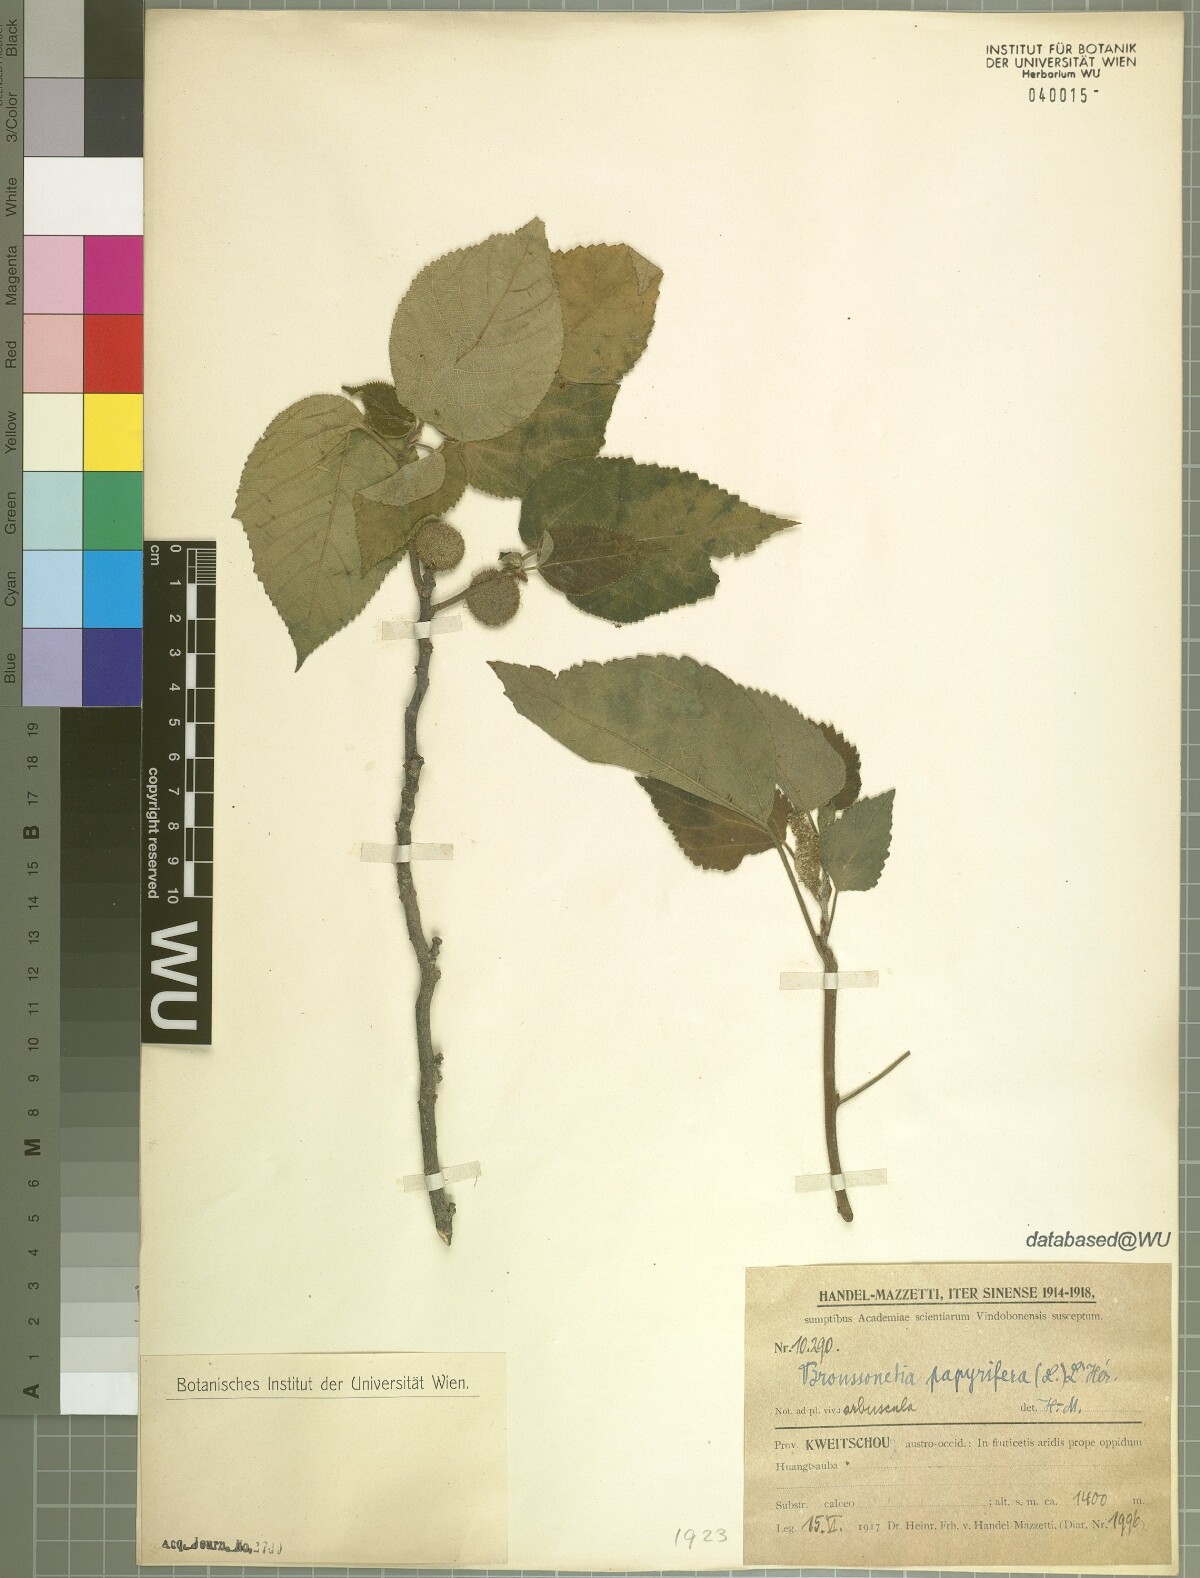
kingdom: Plantae
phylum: Tracheophyta
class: Magnoliopsida
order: Rosales
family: Moraceae
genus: Broussonetia
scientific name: Broussonetia papyrifera
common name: Paper mulberry
